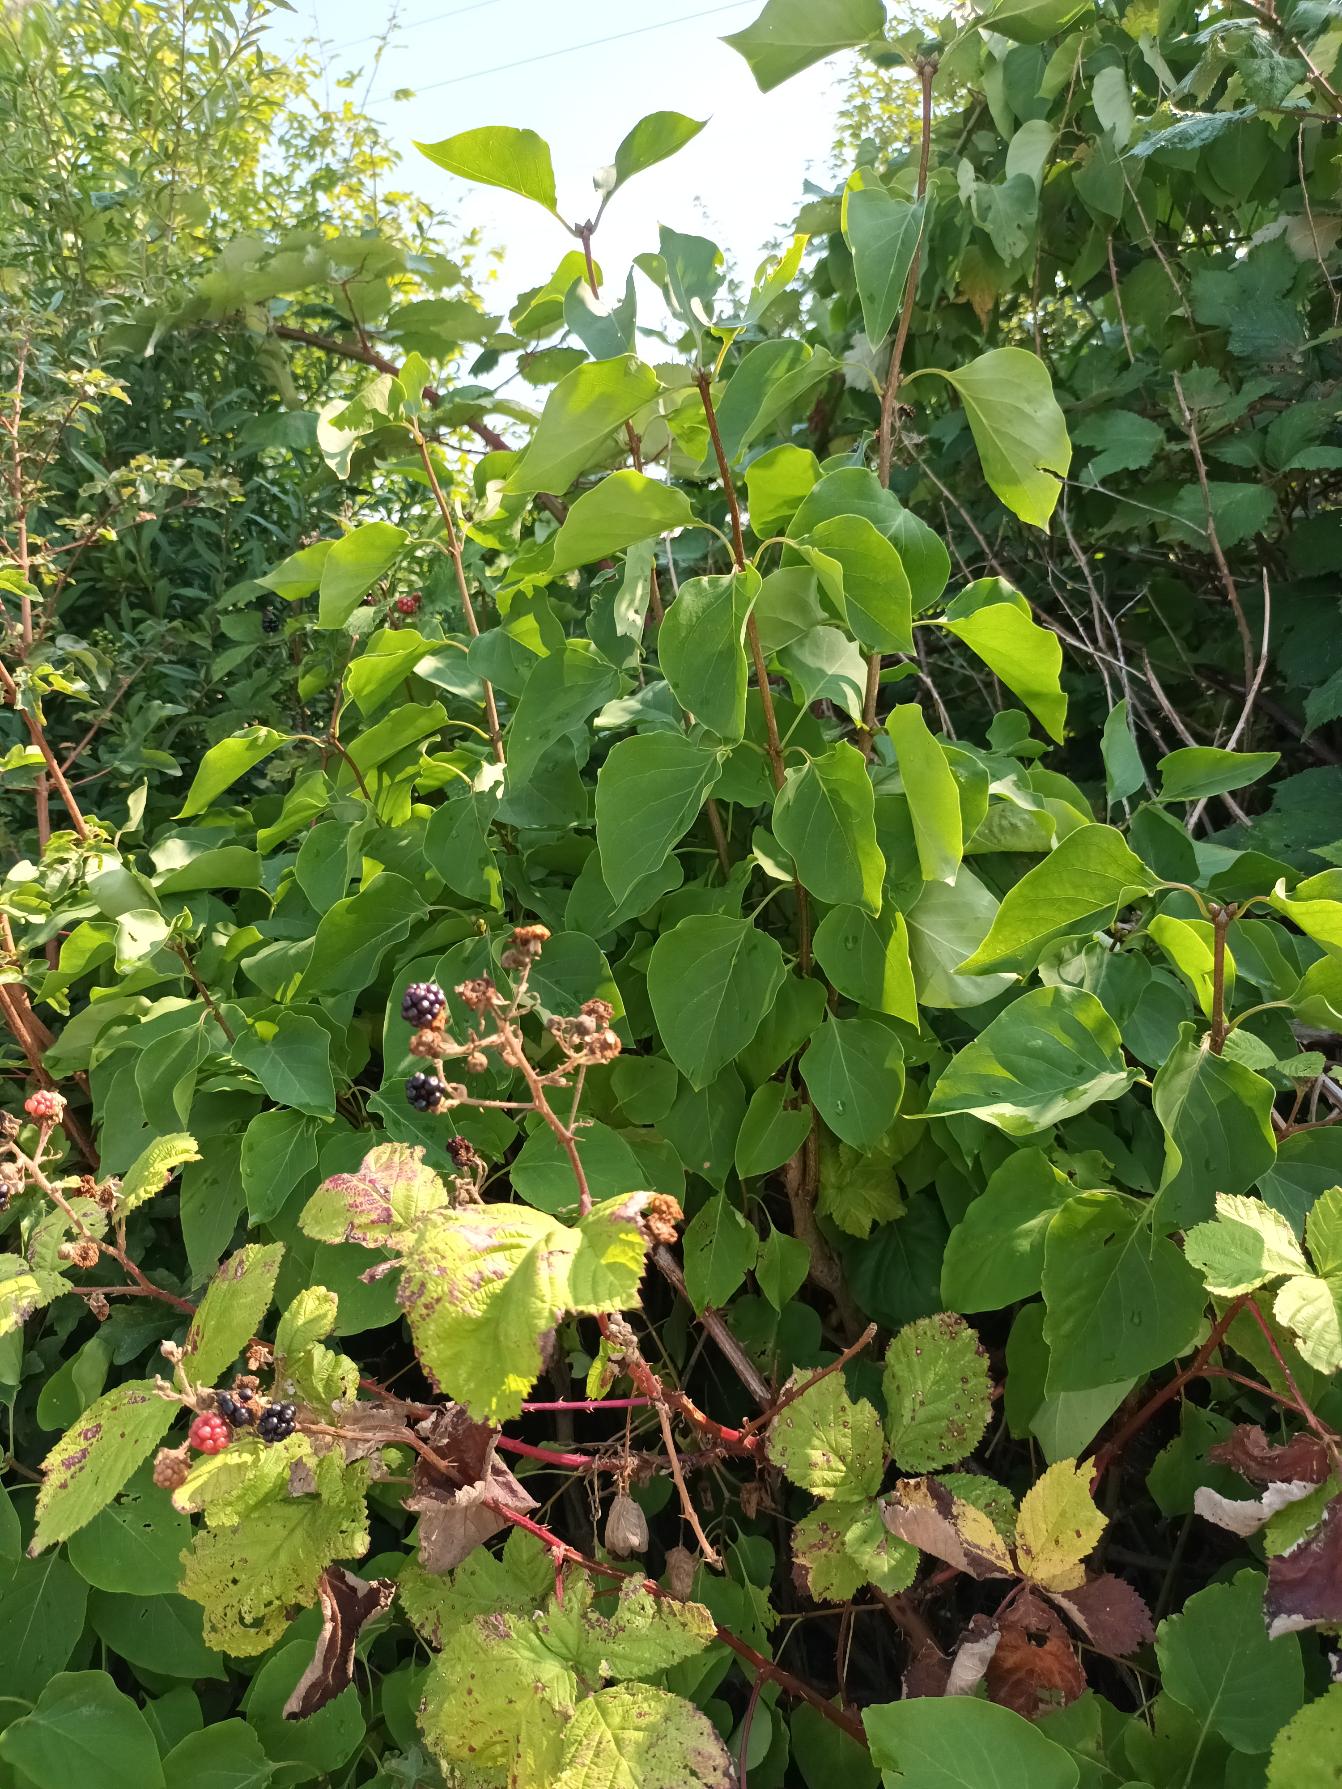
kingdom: Plantae
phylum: Tracheophyta
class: Magnoliopsida
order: Lamiales
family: Oleaceae
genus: Syringa
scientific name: Syringa vulgaris
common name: Syren
